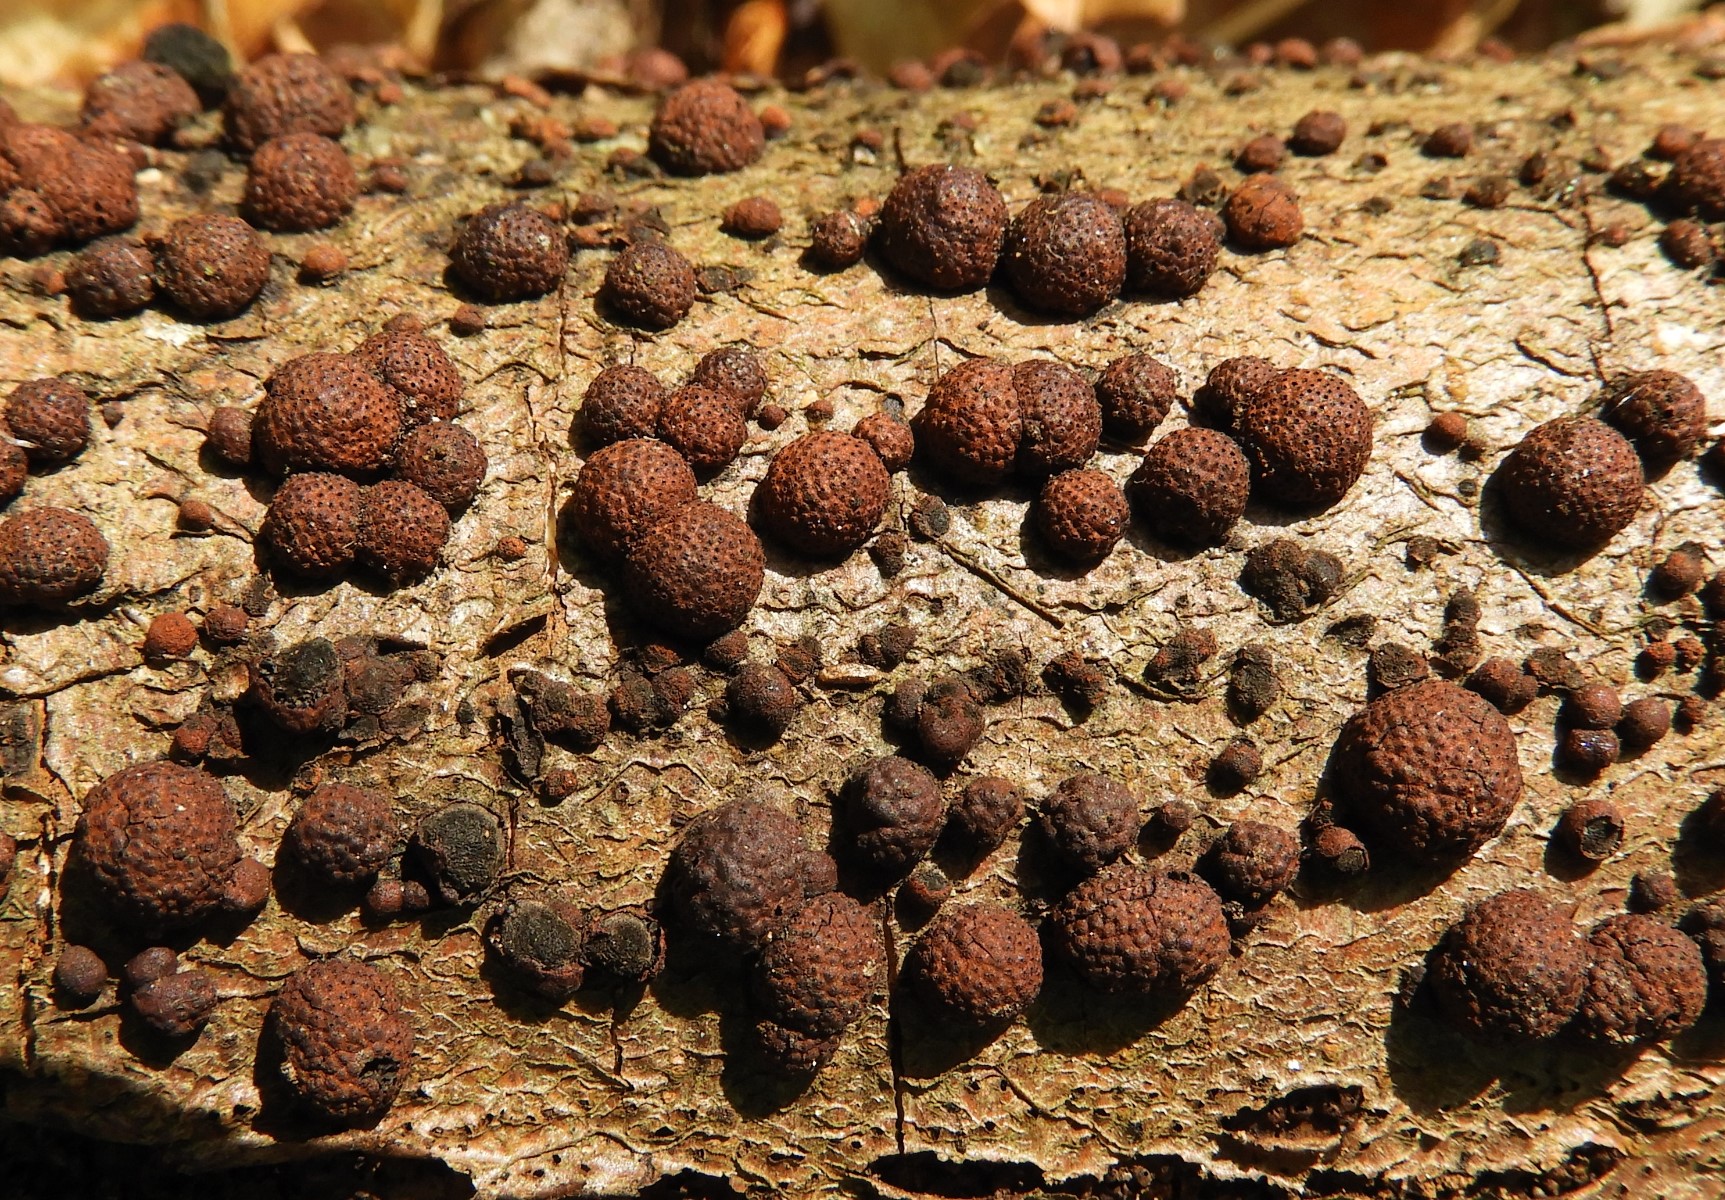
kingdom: Fungi
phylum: Ascomycota
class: Sordariomycetes
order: Xylariales
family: Hypoxylaceae
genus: Hypoxylon
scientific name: Hypoxylon fragiforme
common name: kuljordbær
